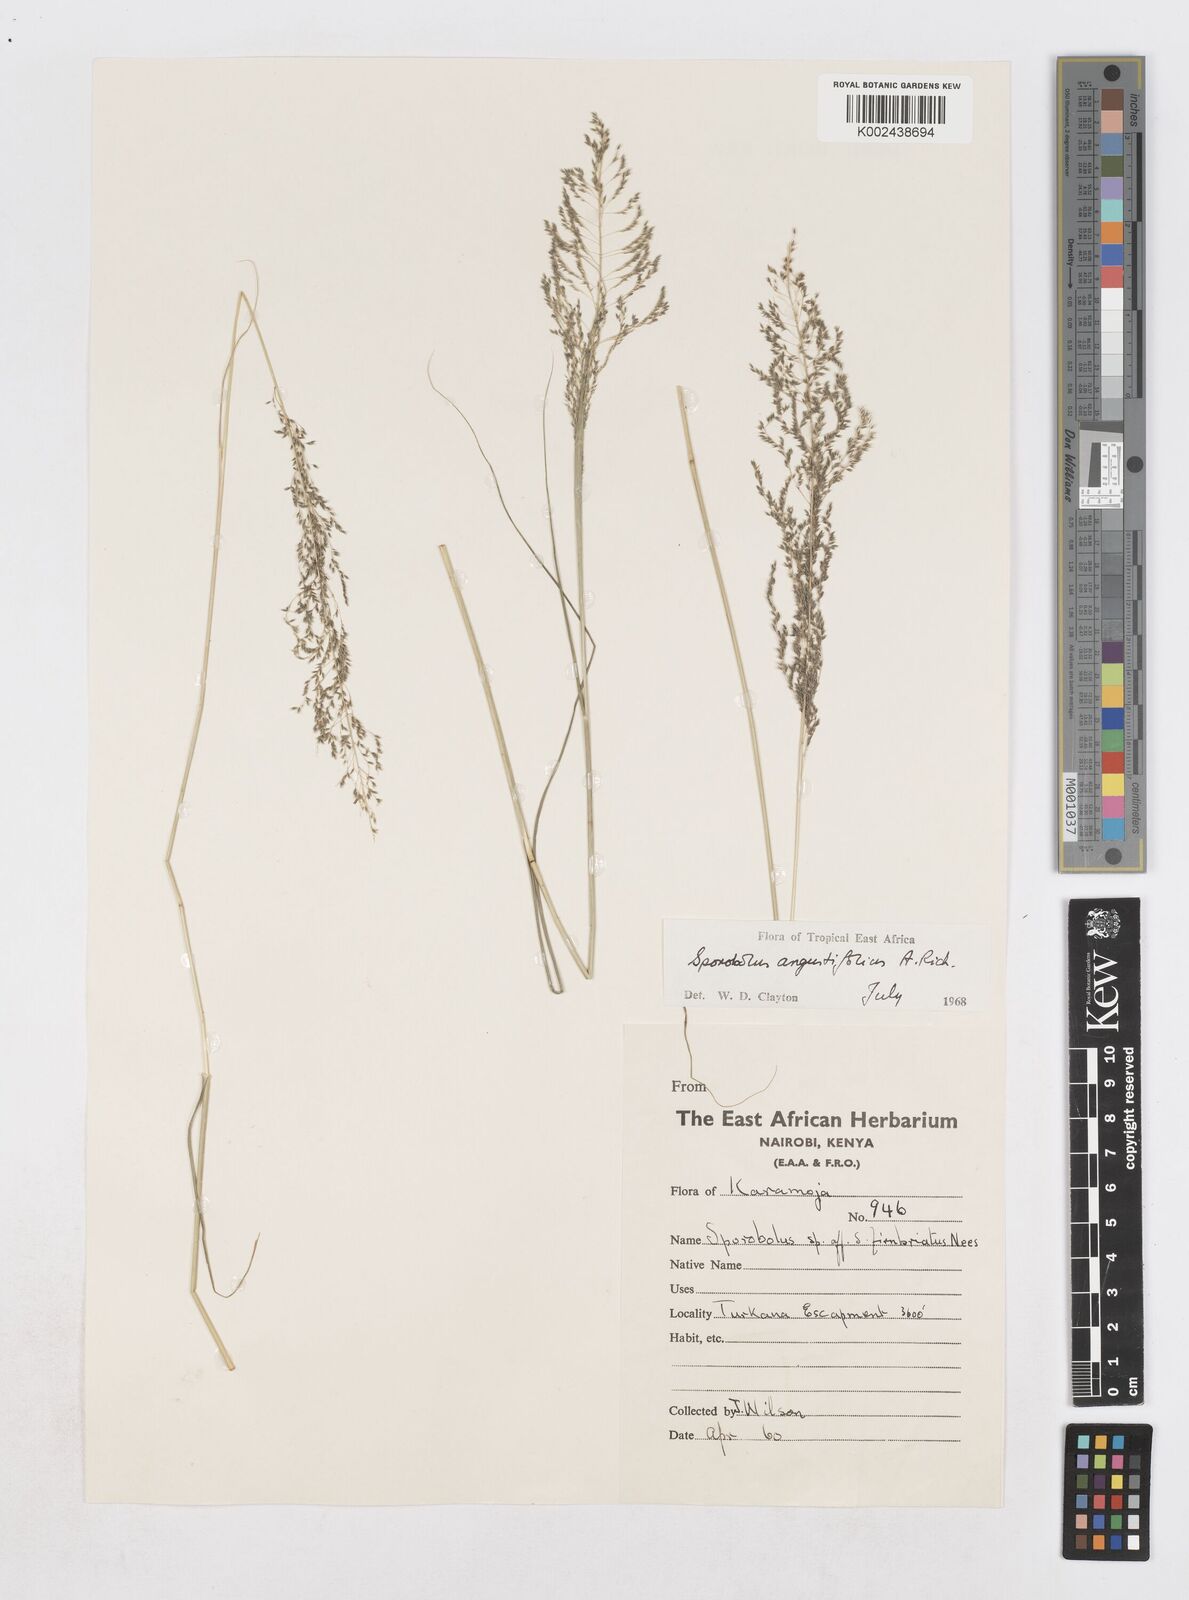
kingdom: Plantae
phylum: Tracheophyta
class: Liliopsida
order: Poales
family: Poaceae
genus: Sporobolus
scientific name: Sporobolus angustifolius
